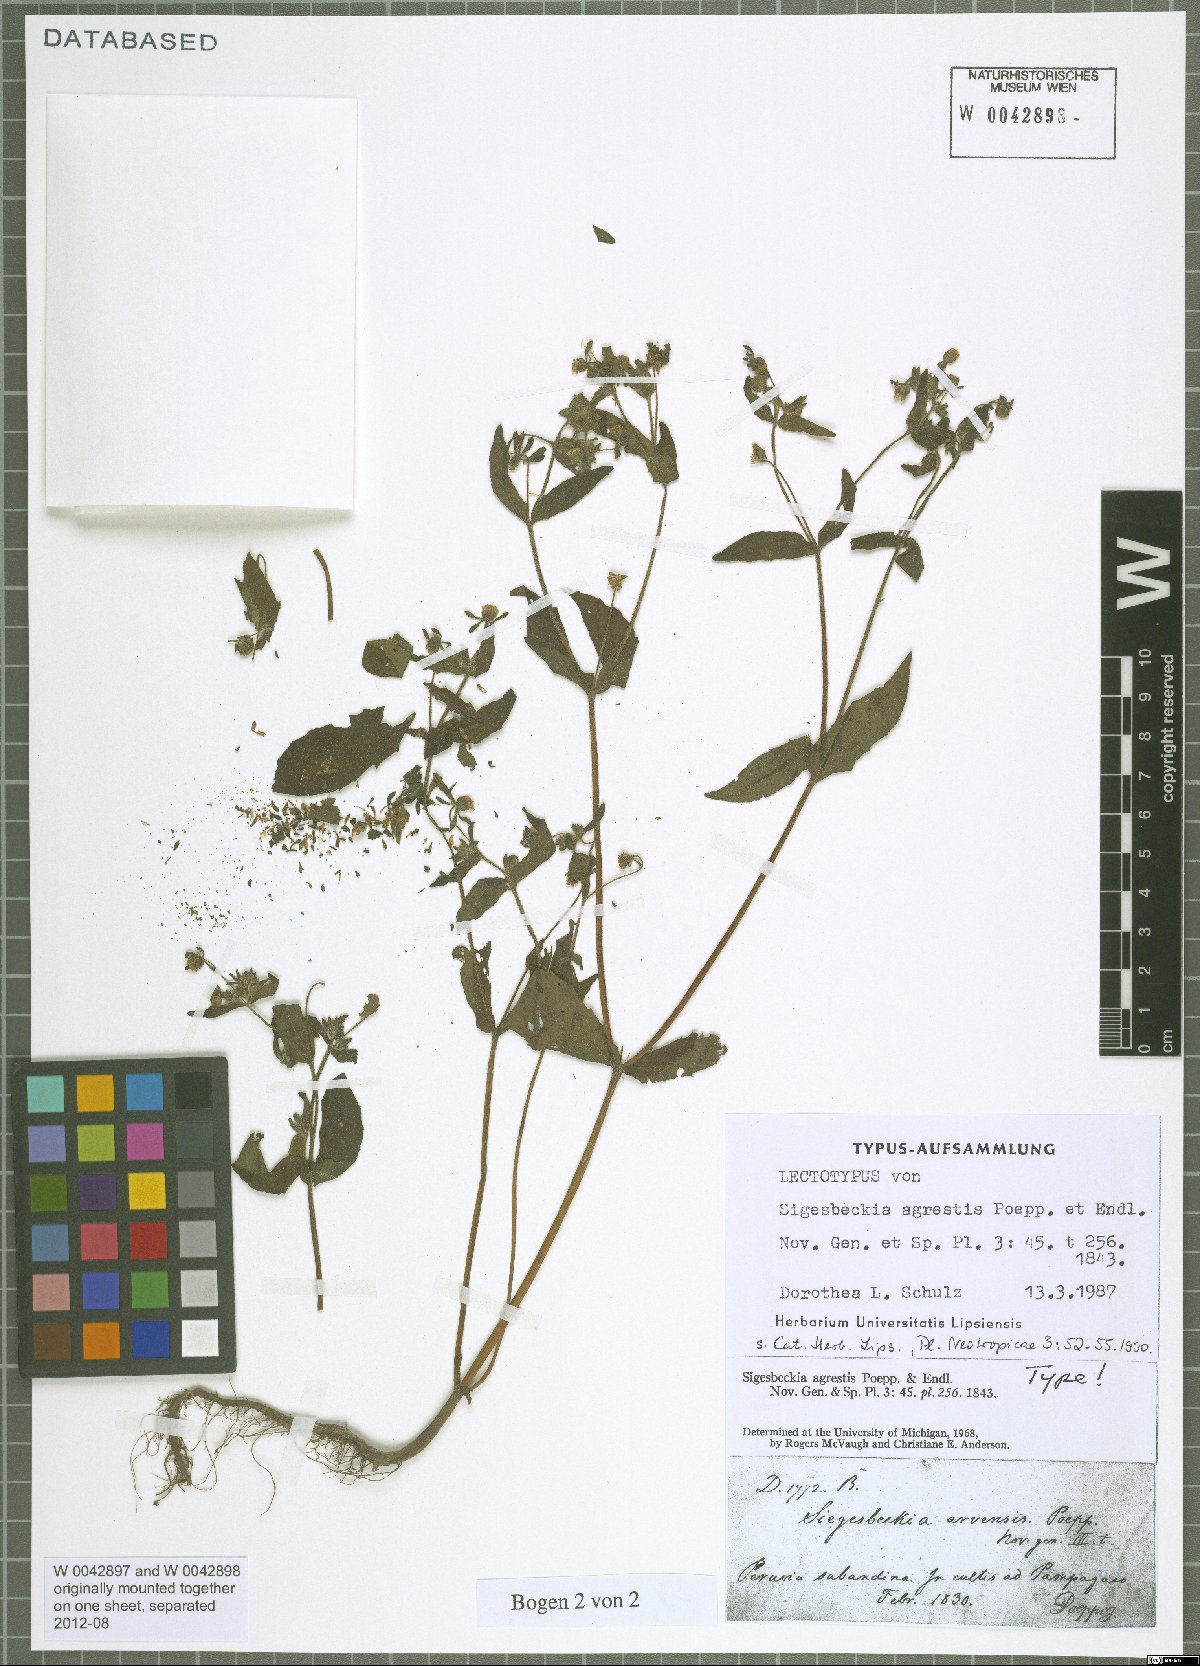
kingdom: Plantae
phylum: Tracheophyta
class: Magnoliopsida
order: Asterales
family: Asteraceae
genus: Sigesbeckia
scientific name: Sigesbeckia agrestis
